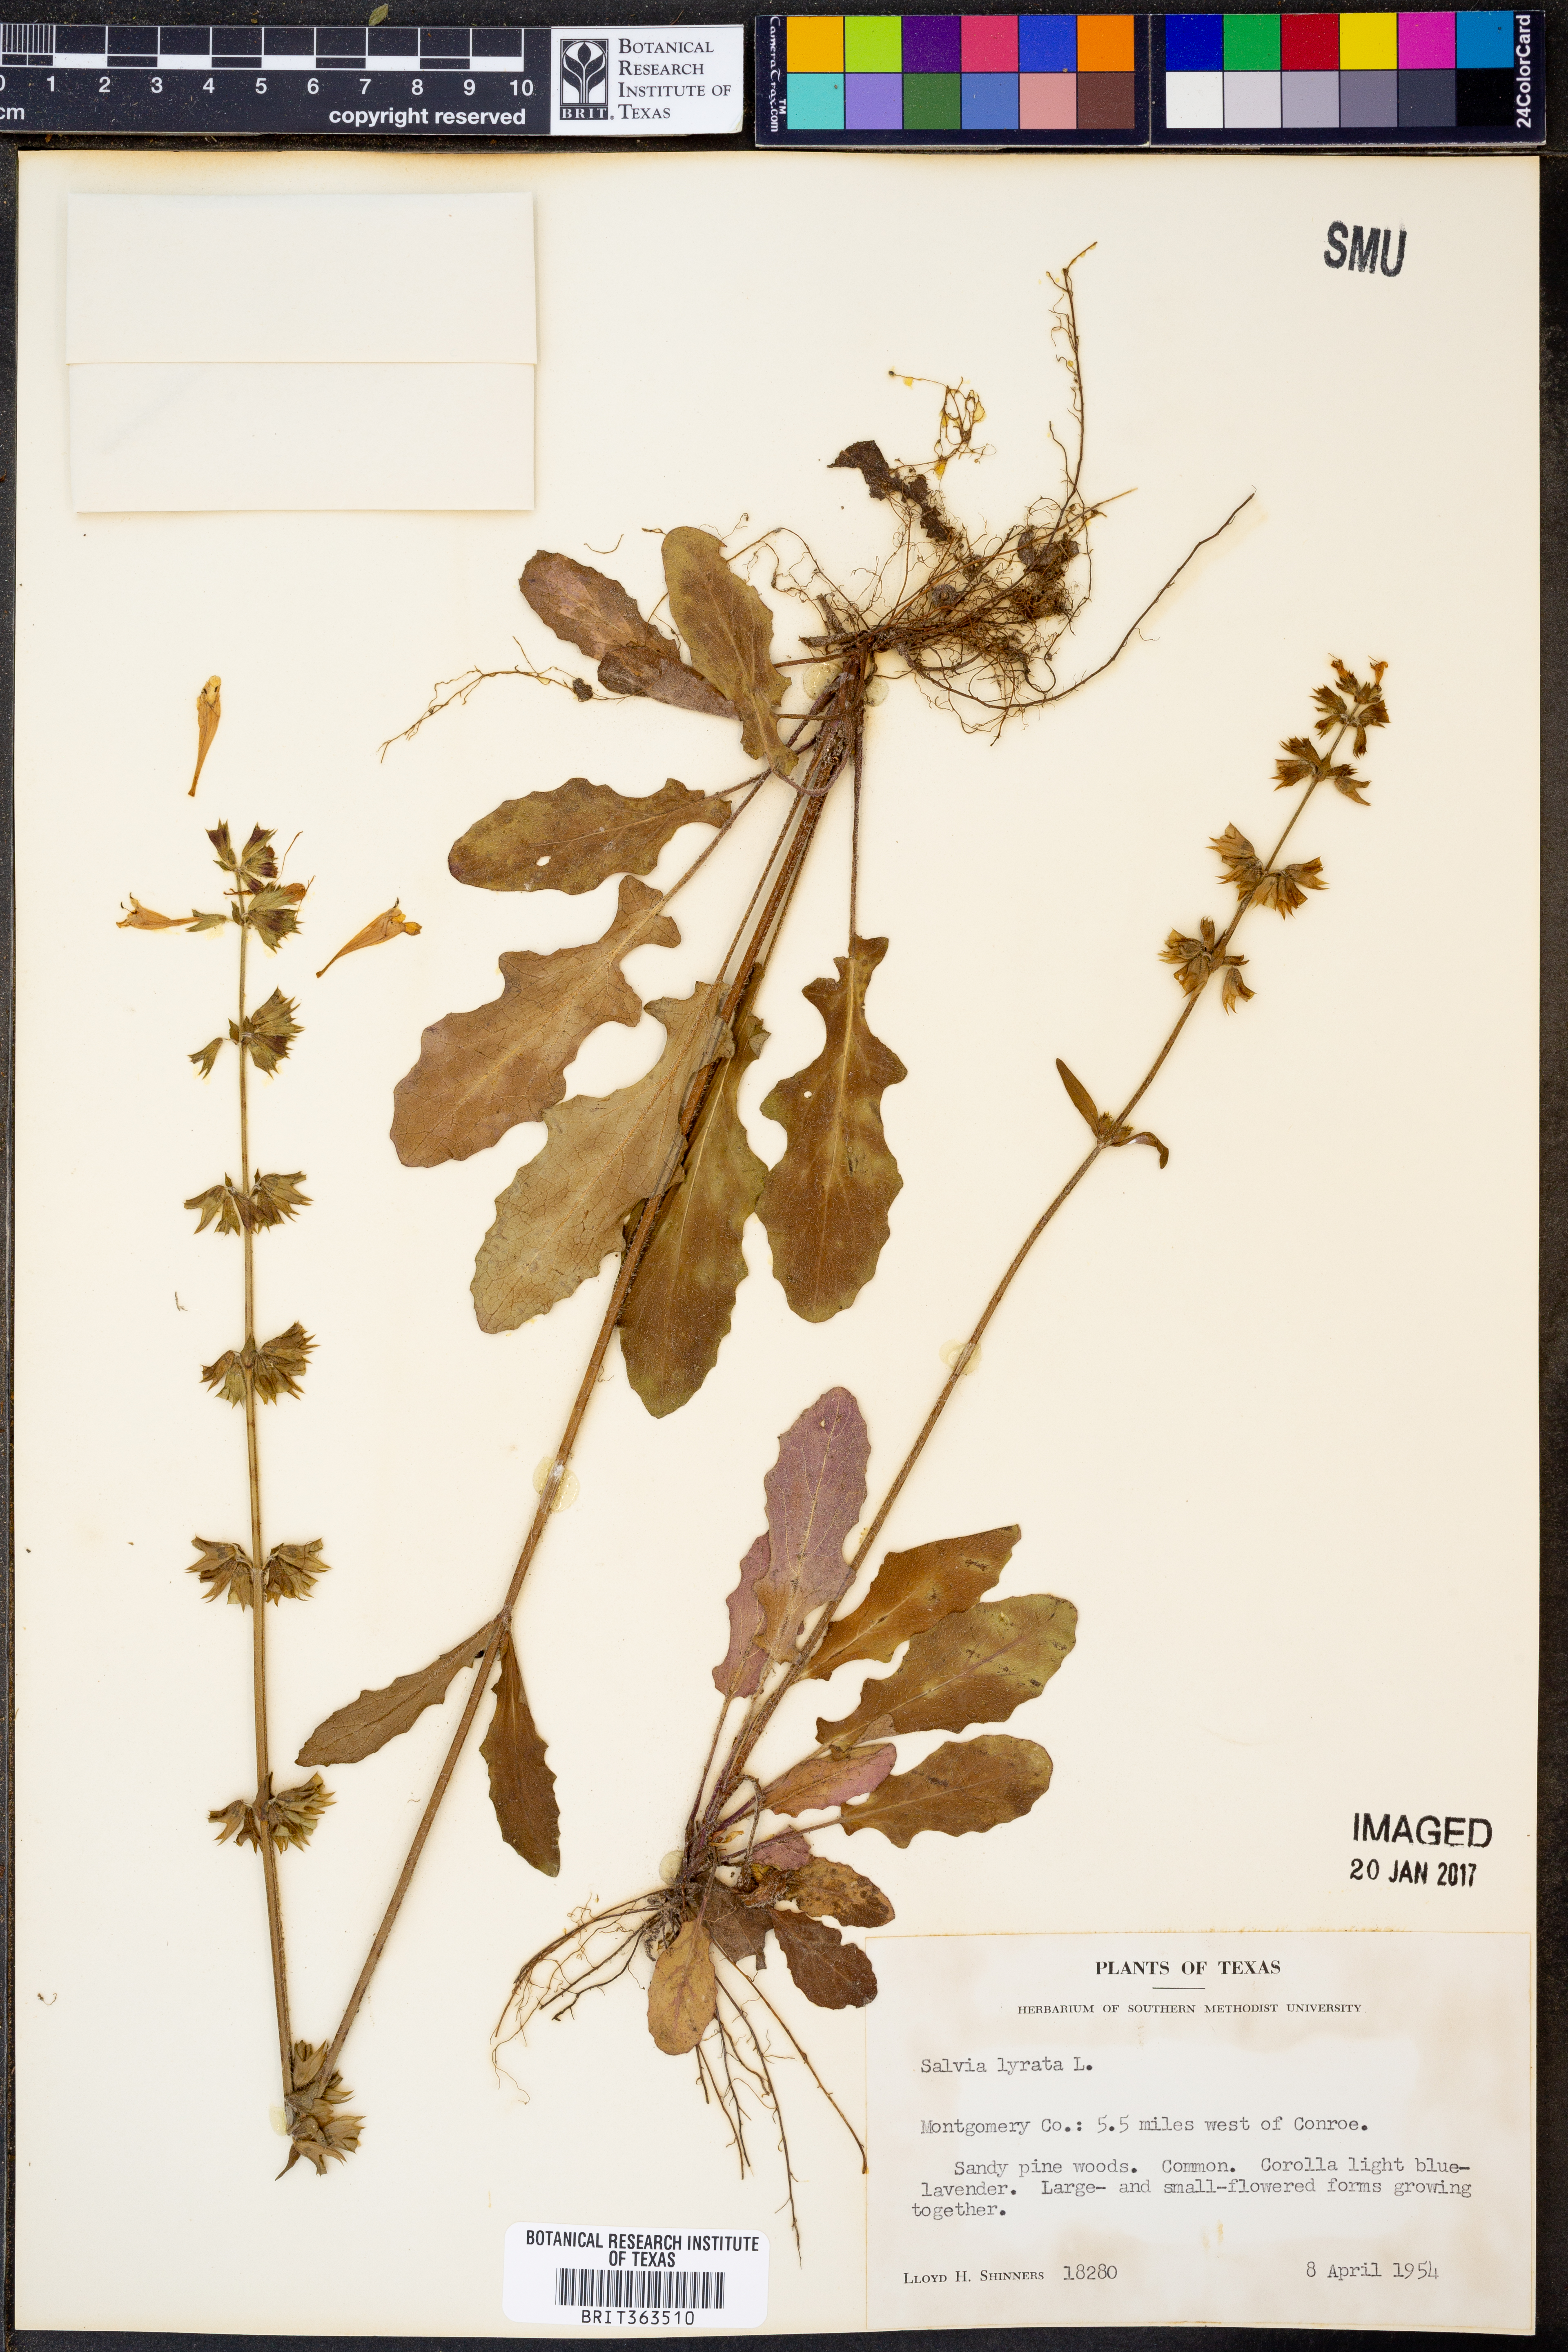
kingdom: Plantae
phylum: Tracheophyta
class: Magnoliopsida
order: Lamiales
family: Lamiaceae
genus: Salvia
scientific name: Salvia lyrata
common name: Cancerweed
